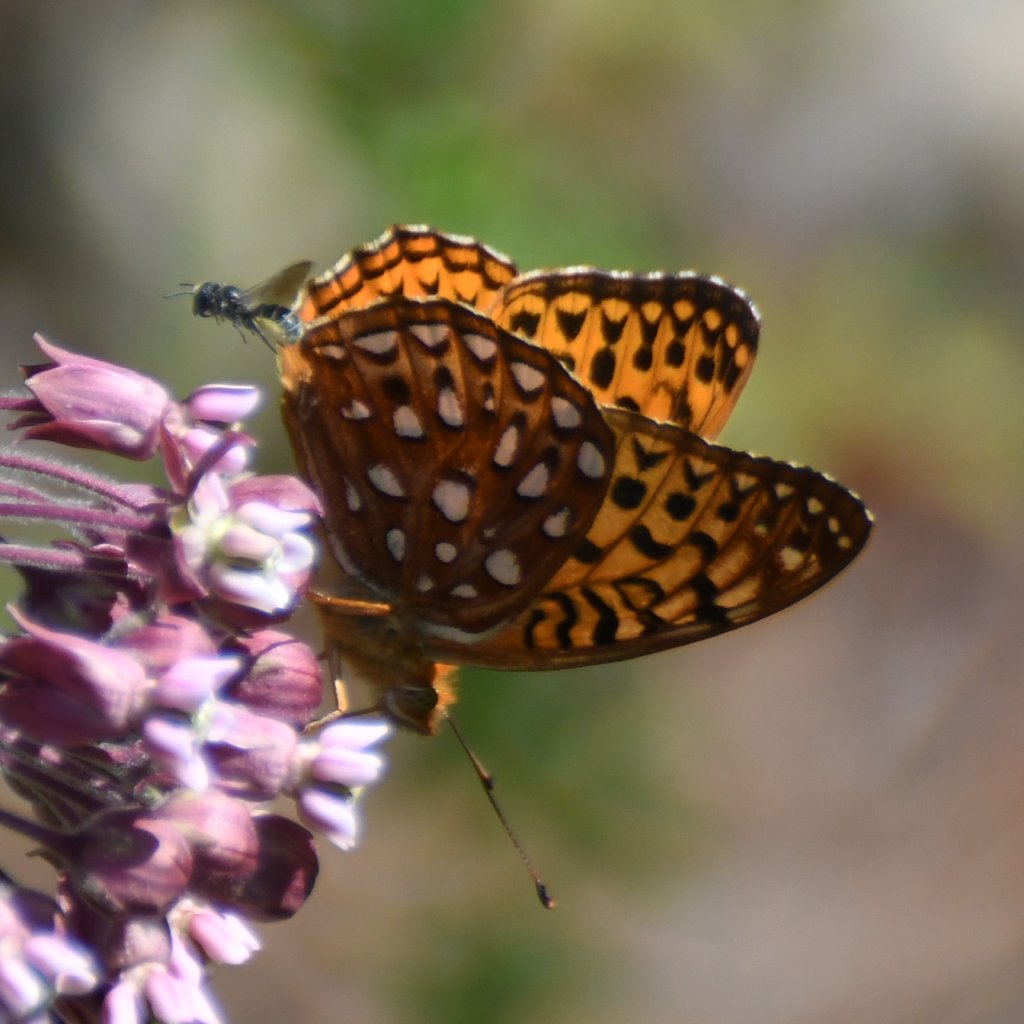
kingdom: Animalia
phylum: Arthropoda
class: Insecta
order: Lepidoptera
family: Nymphalidae
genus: Speyeria
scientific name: Speyeria aphrodite
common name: Aphrodite Fritillary
